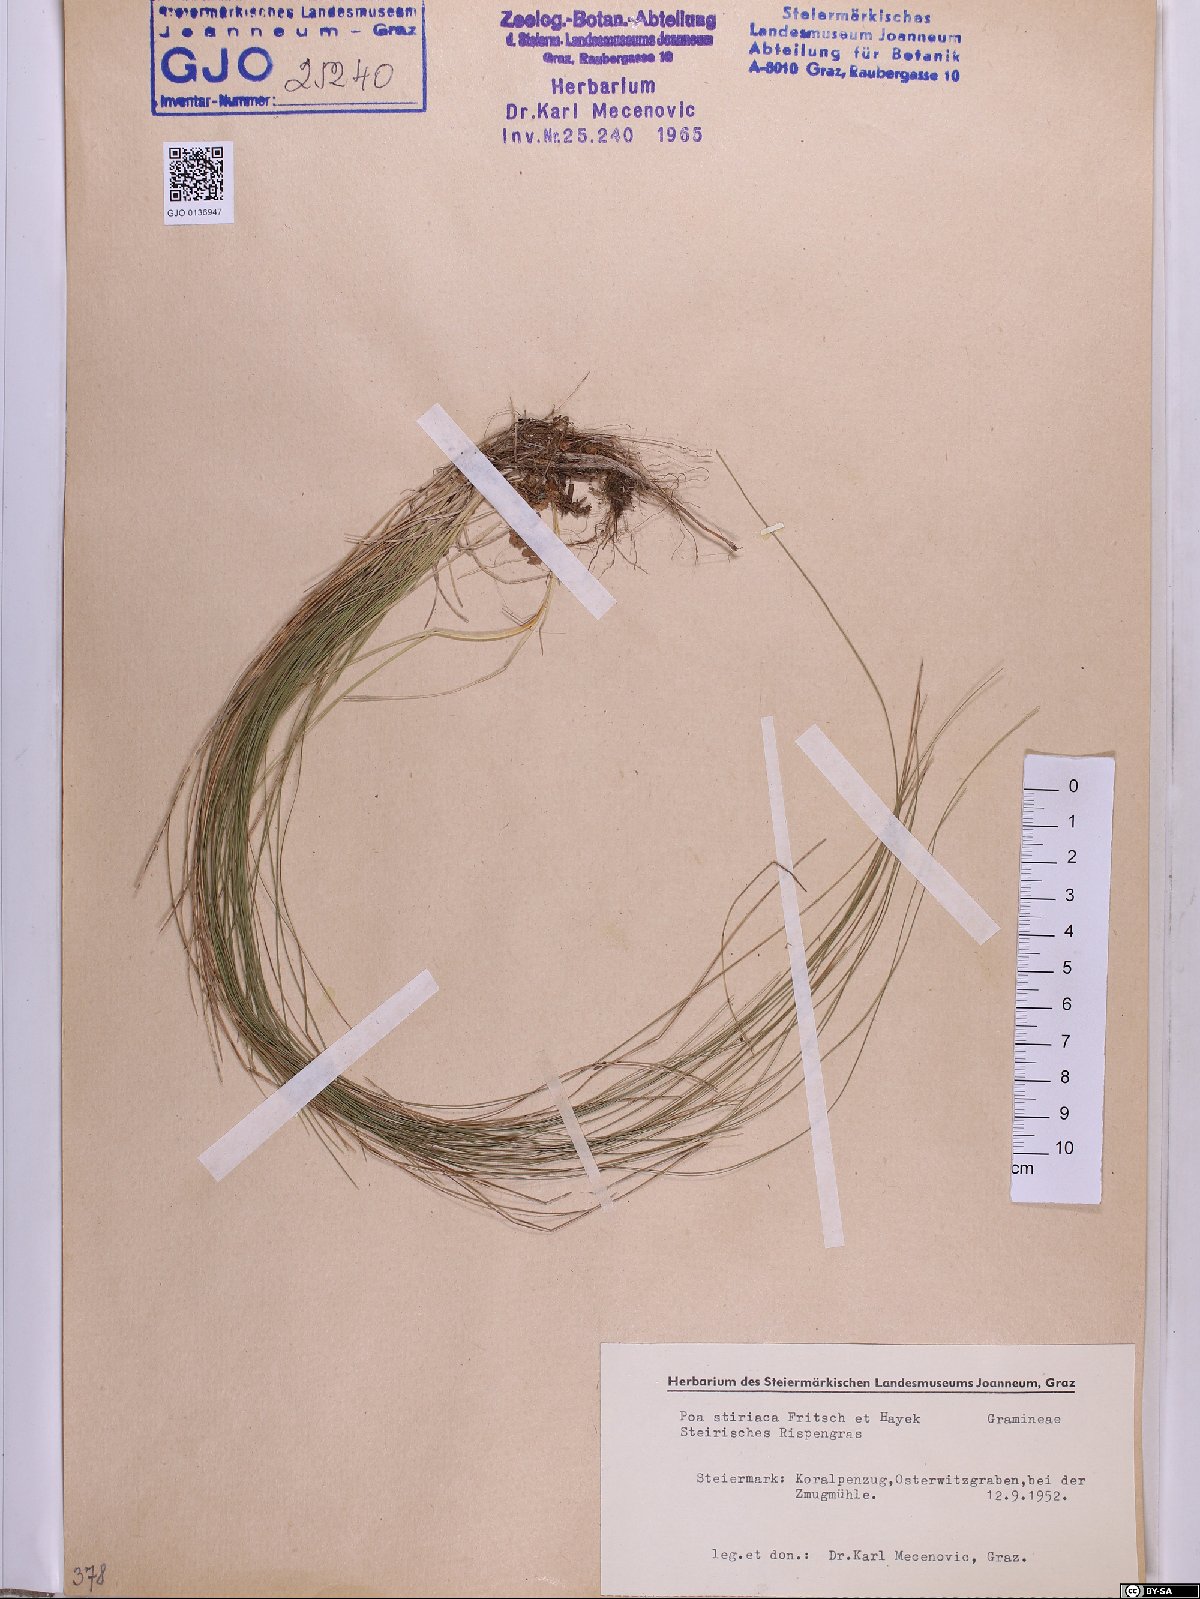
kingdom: Plantae
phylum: Tracheophyta
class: Liliopsida
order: Poales
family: Poaceae
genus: Poa
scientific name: Poa stiriaca
